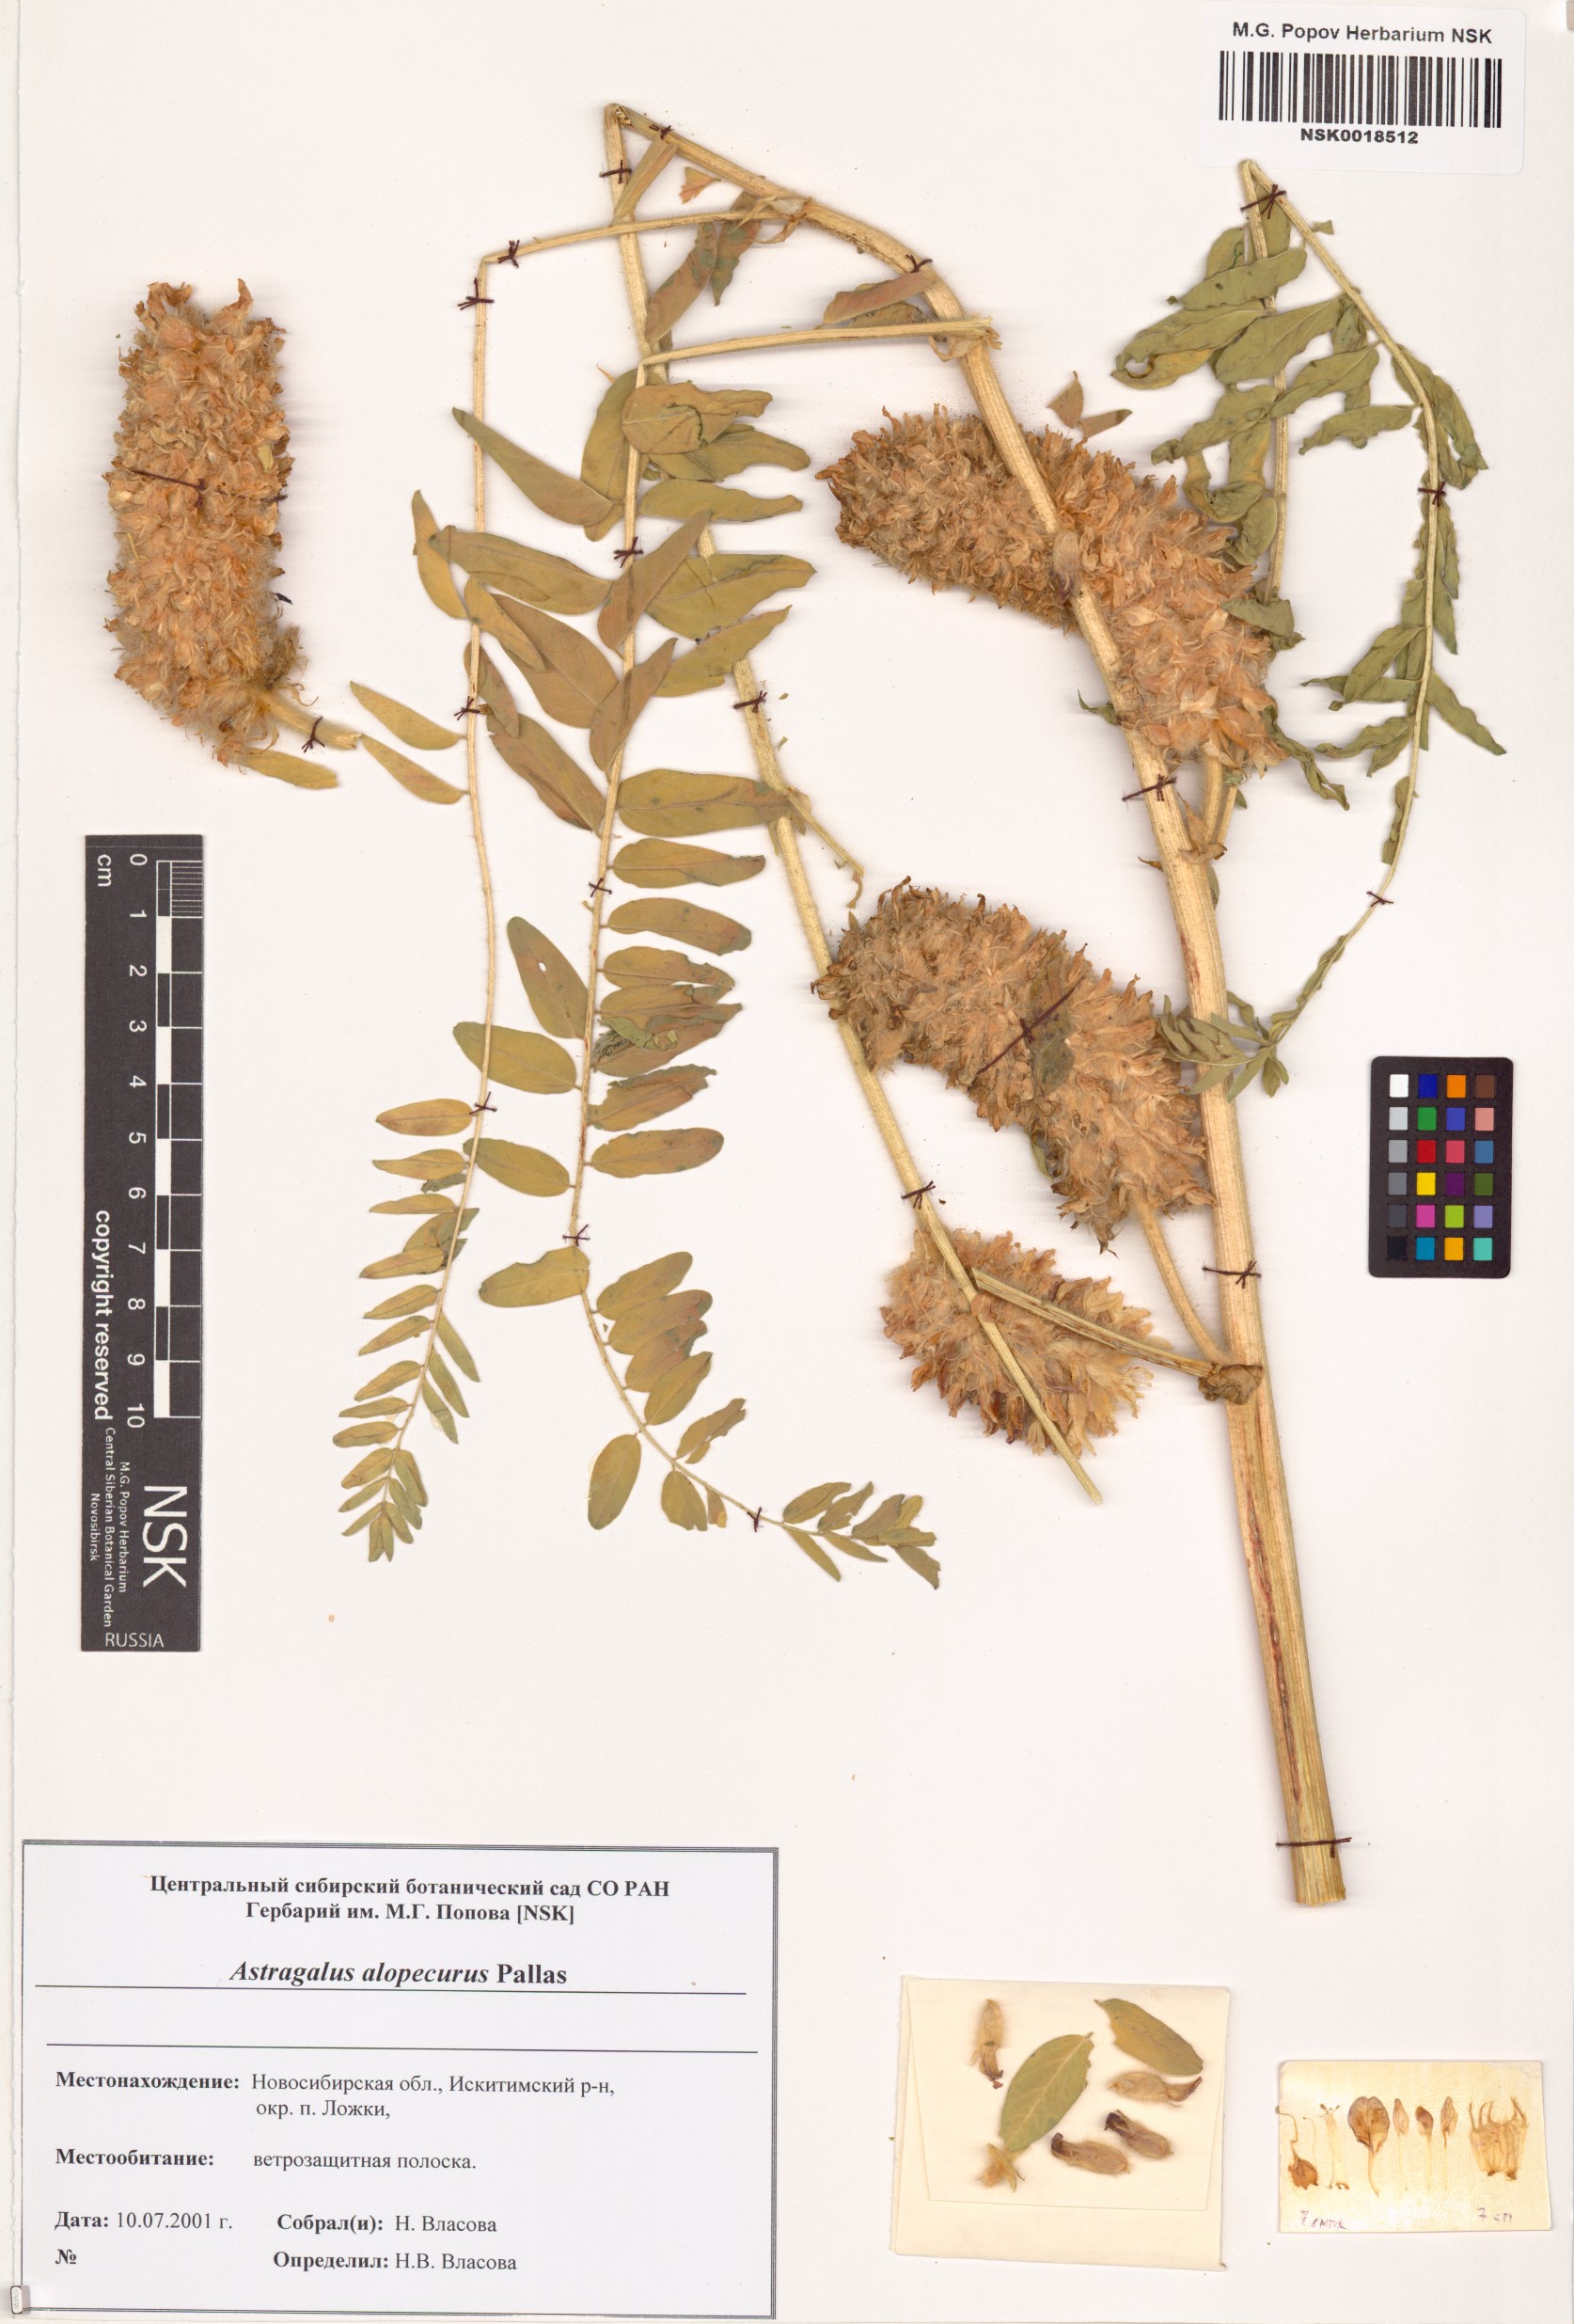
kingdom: Plantae
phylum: Tracheophyta
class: Magnoliopsida
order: Fabales
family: Fabaceae
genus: Astragalus
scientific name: Astragalus alopecurus
